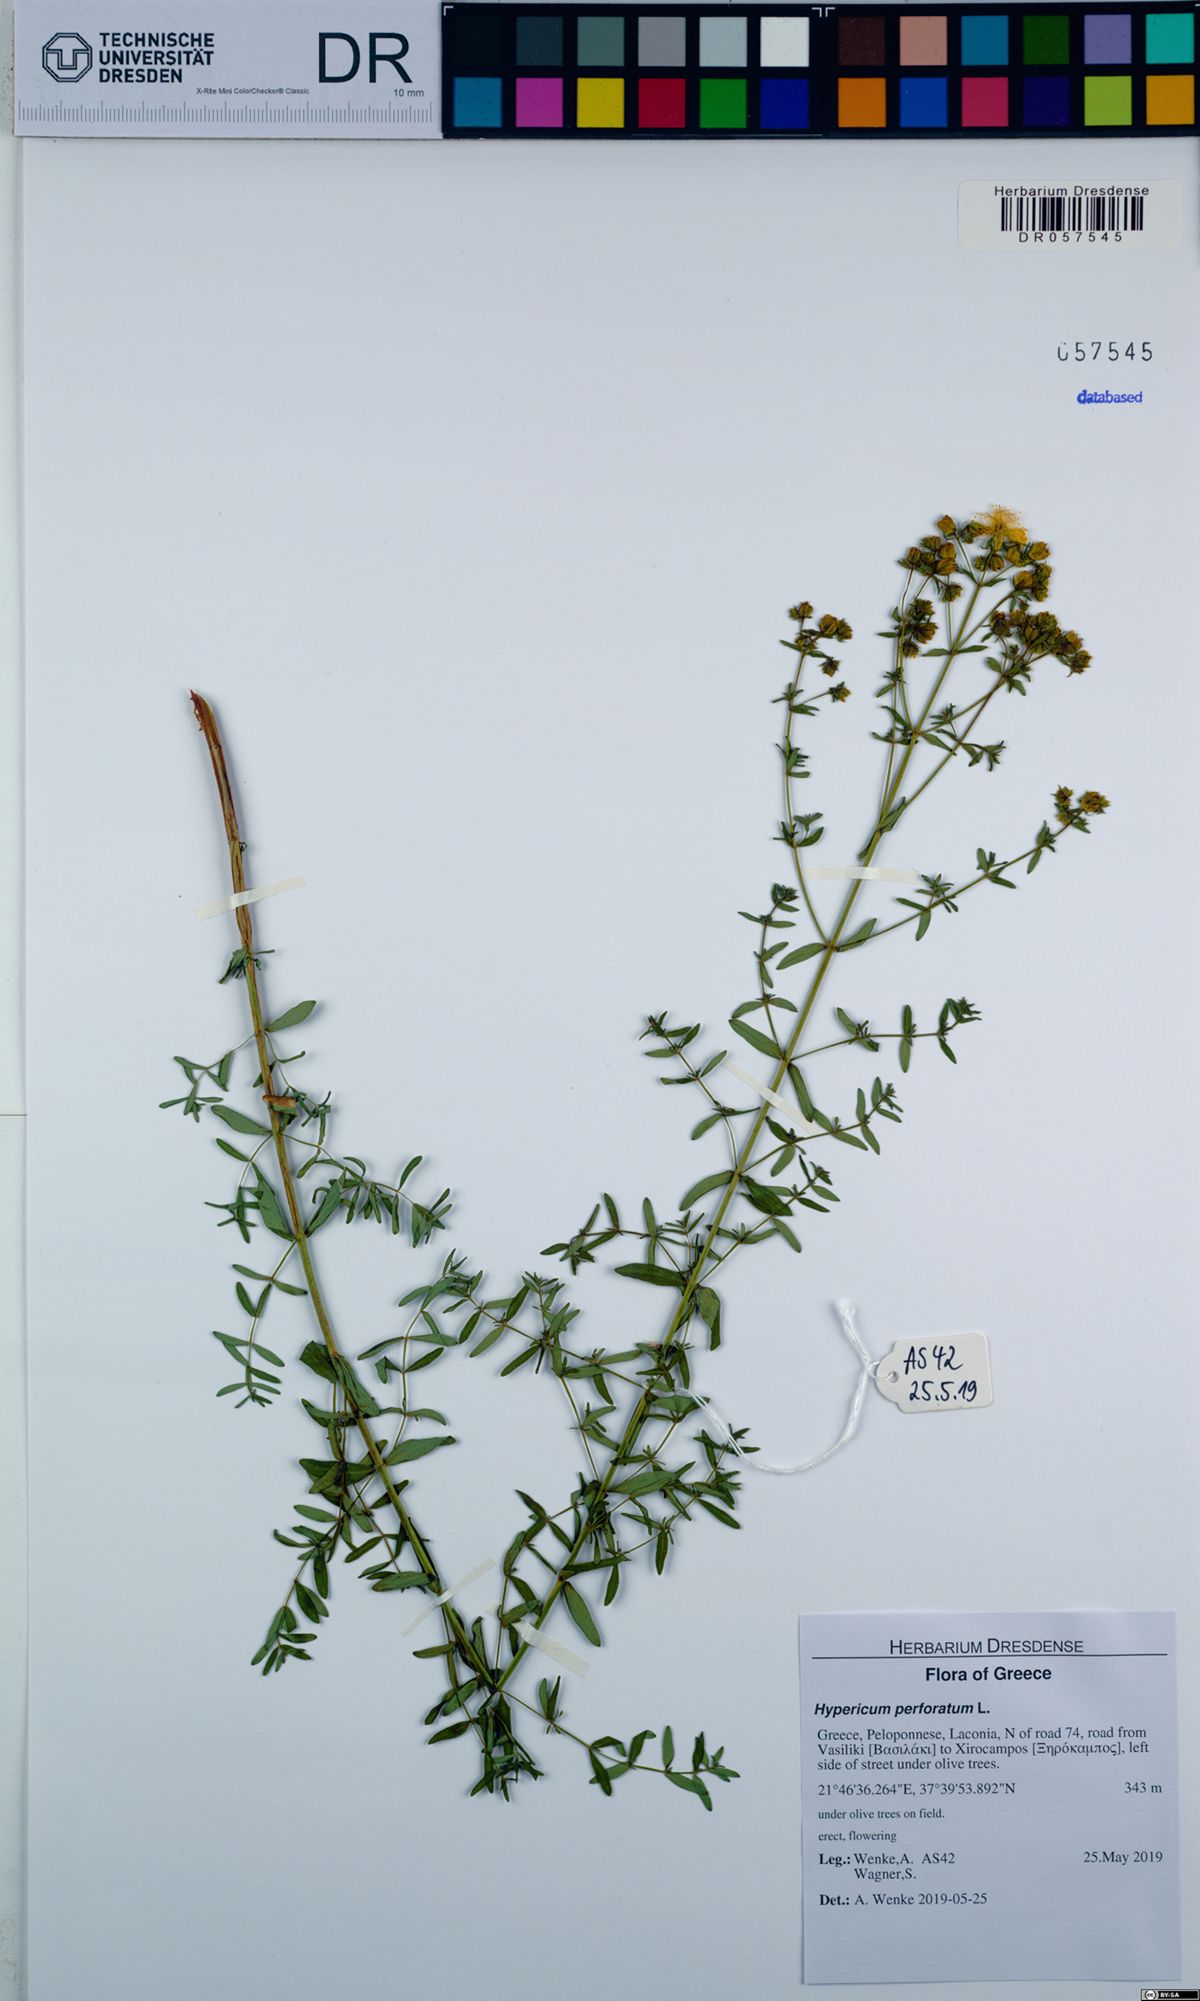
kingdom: Plantae
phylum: Tracheophyta
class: Magnoliopsida
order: Malpighiales
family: Hypericaceae
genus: Hypericum
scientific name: Hypericum perforatum
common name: Common st. johnswort
